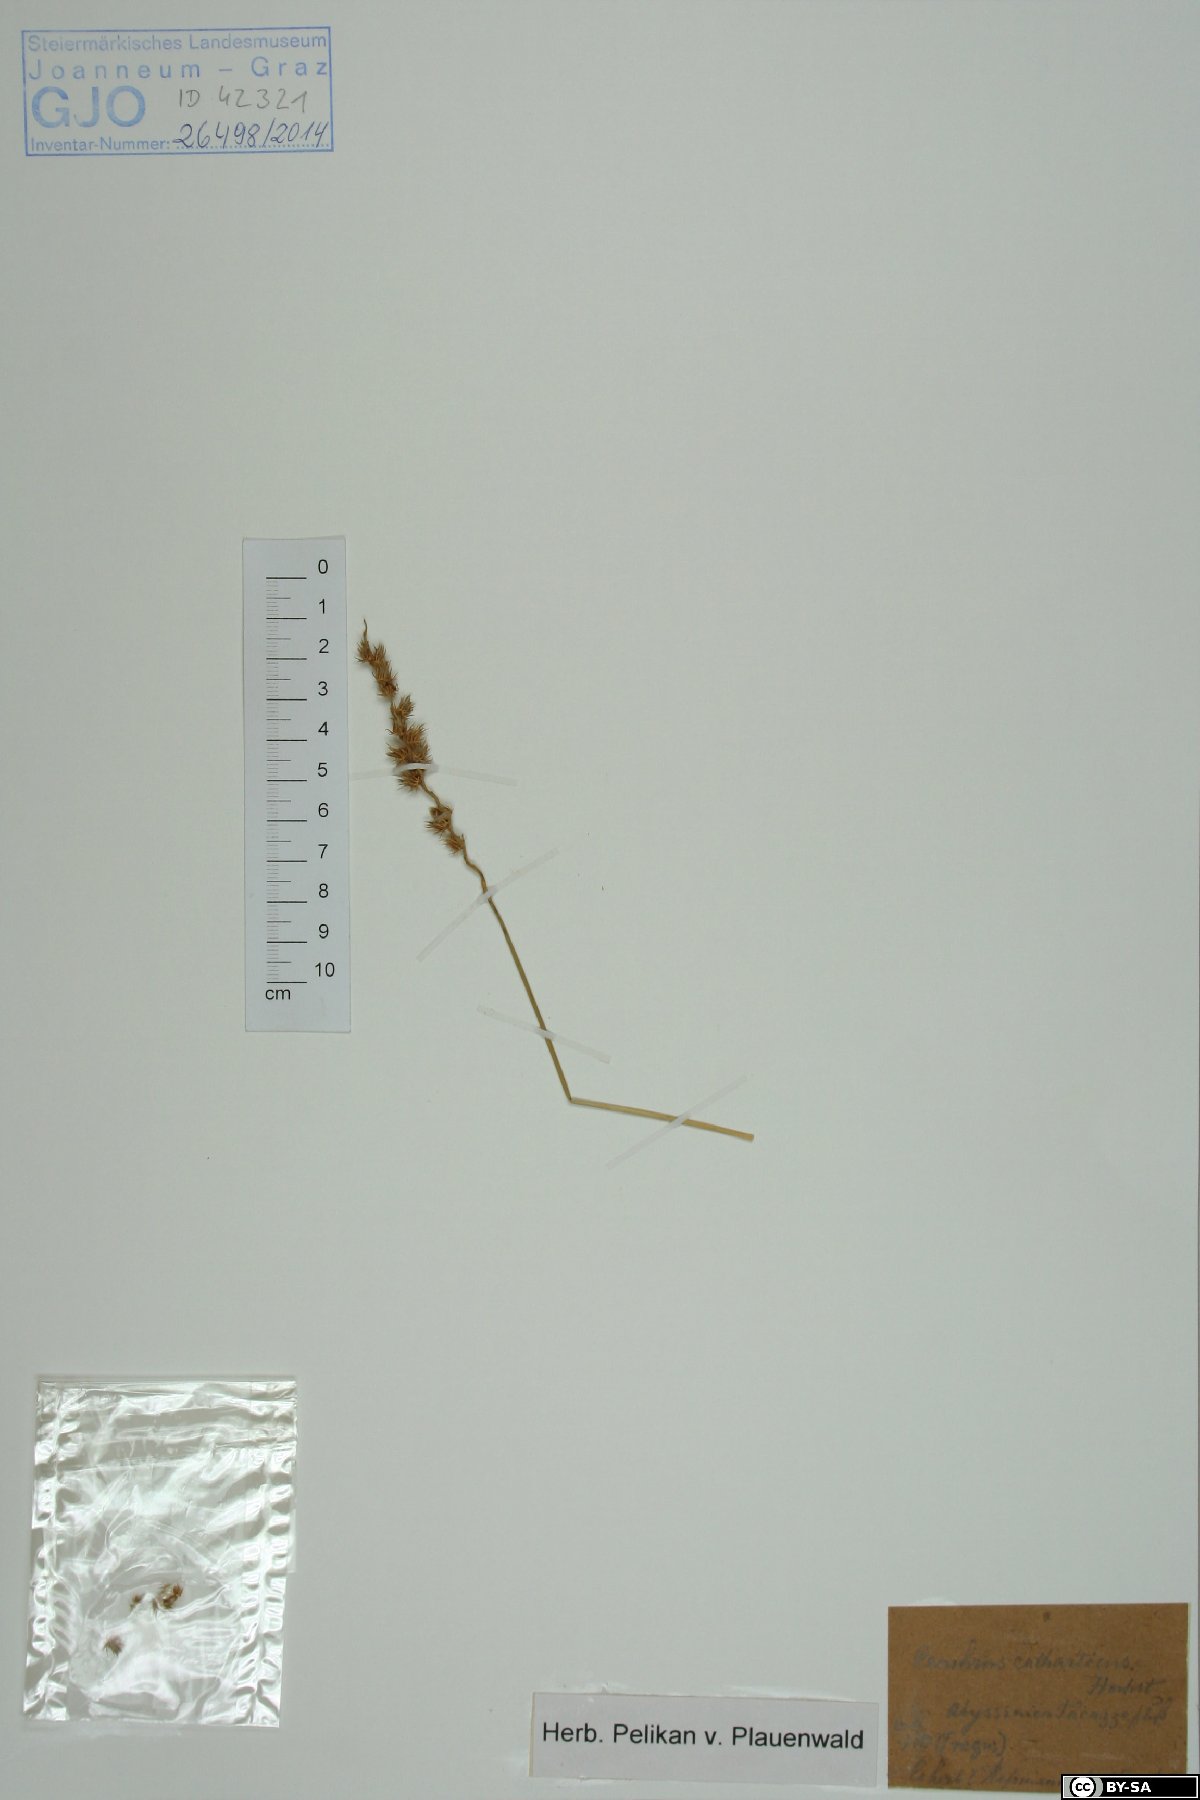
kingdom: Plantae
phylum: Tracheophyta
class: Liliopsida
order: Poales
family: Poaceae
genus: Cenchrus
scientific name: Cenchrus biflorus
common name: Indian sandbur
